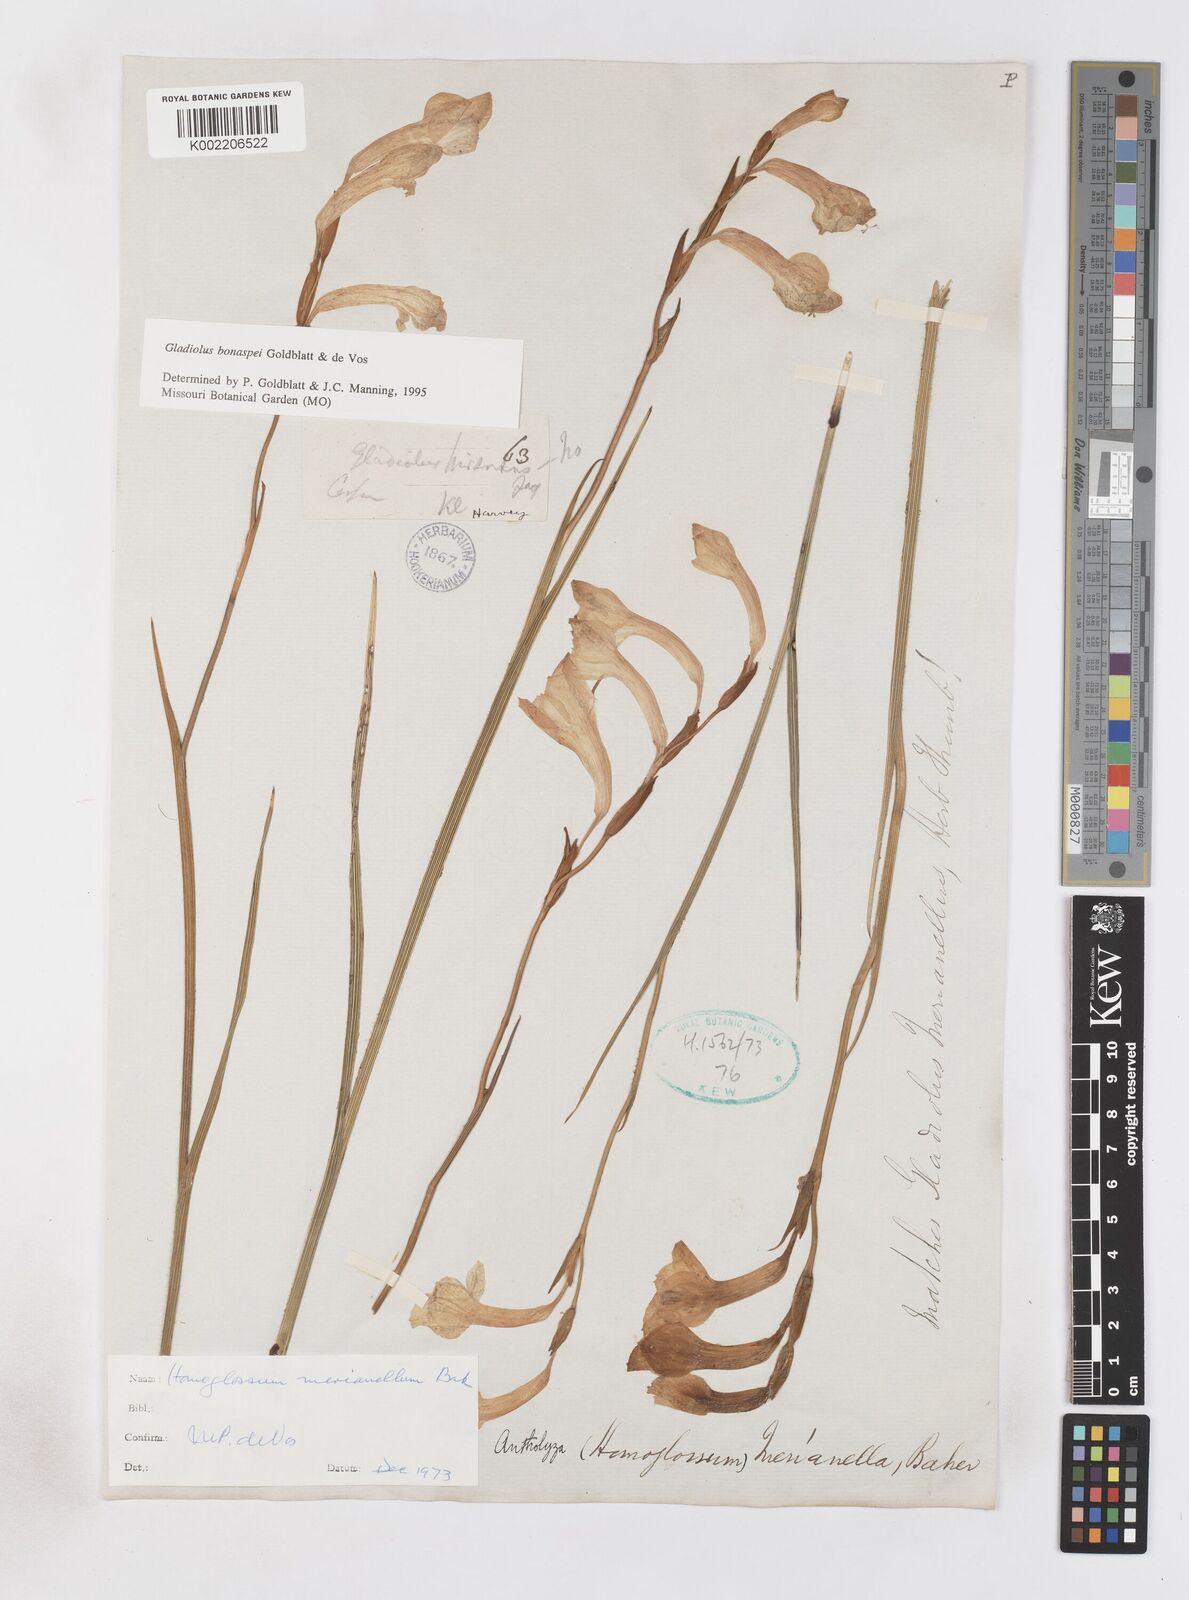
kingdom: Plantae
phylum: Tracheophyta
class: Liliopsida
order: Asparagales
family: Iridaceae
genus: Gladiolus
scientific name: Gladiolus merianellus
